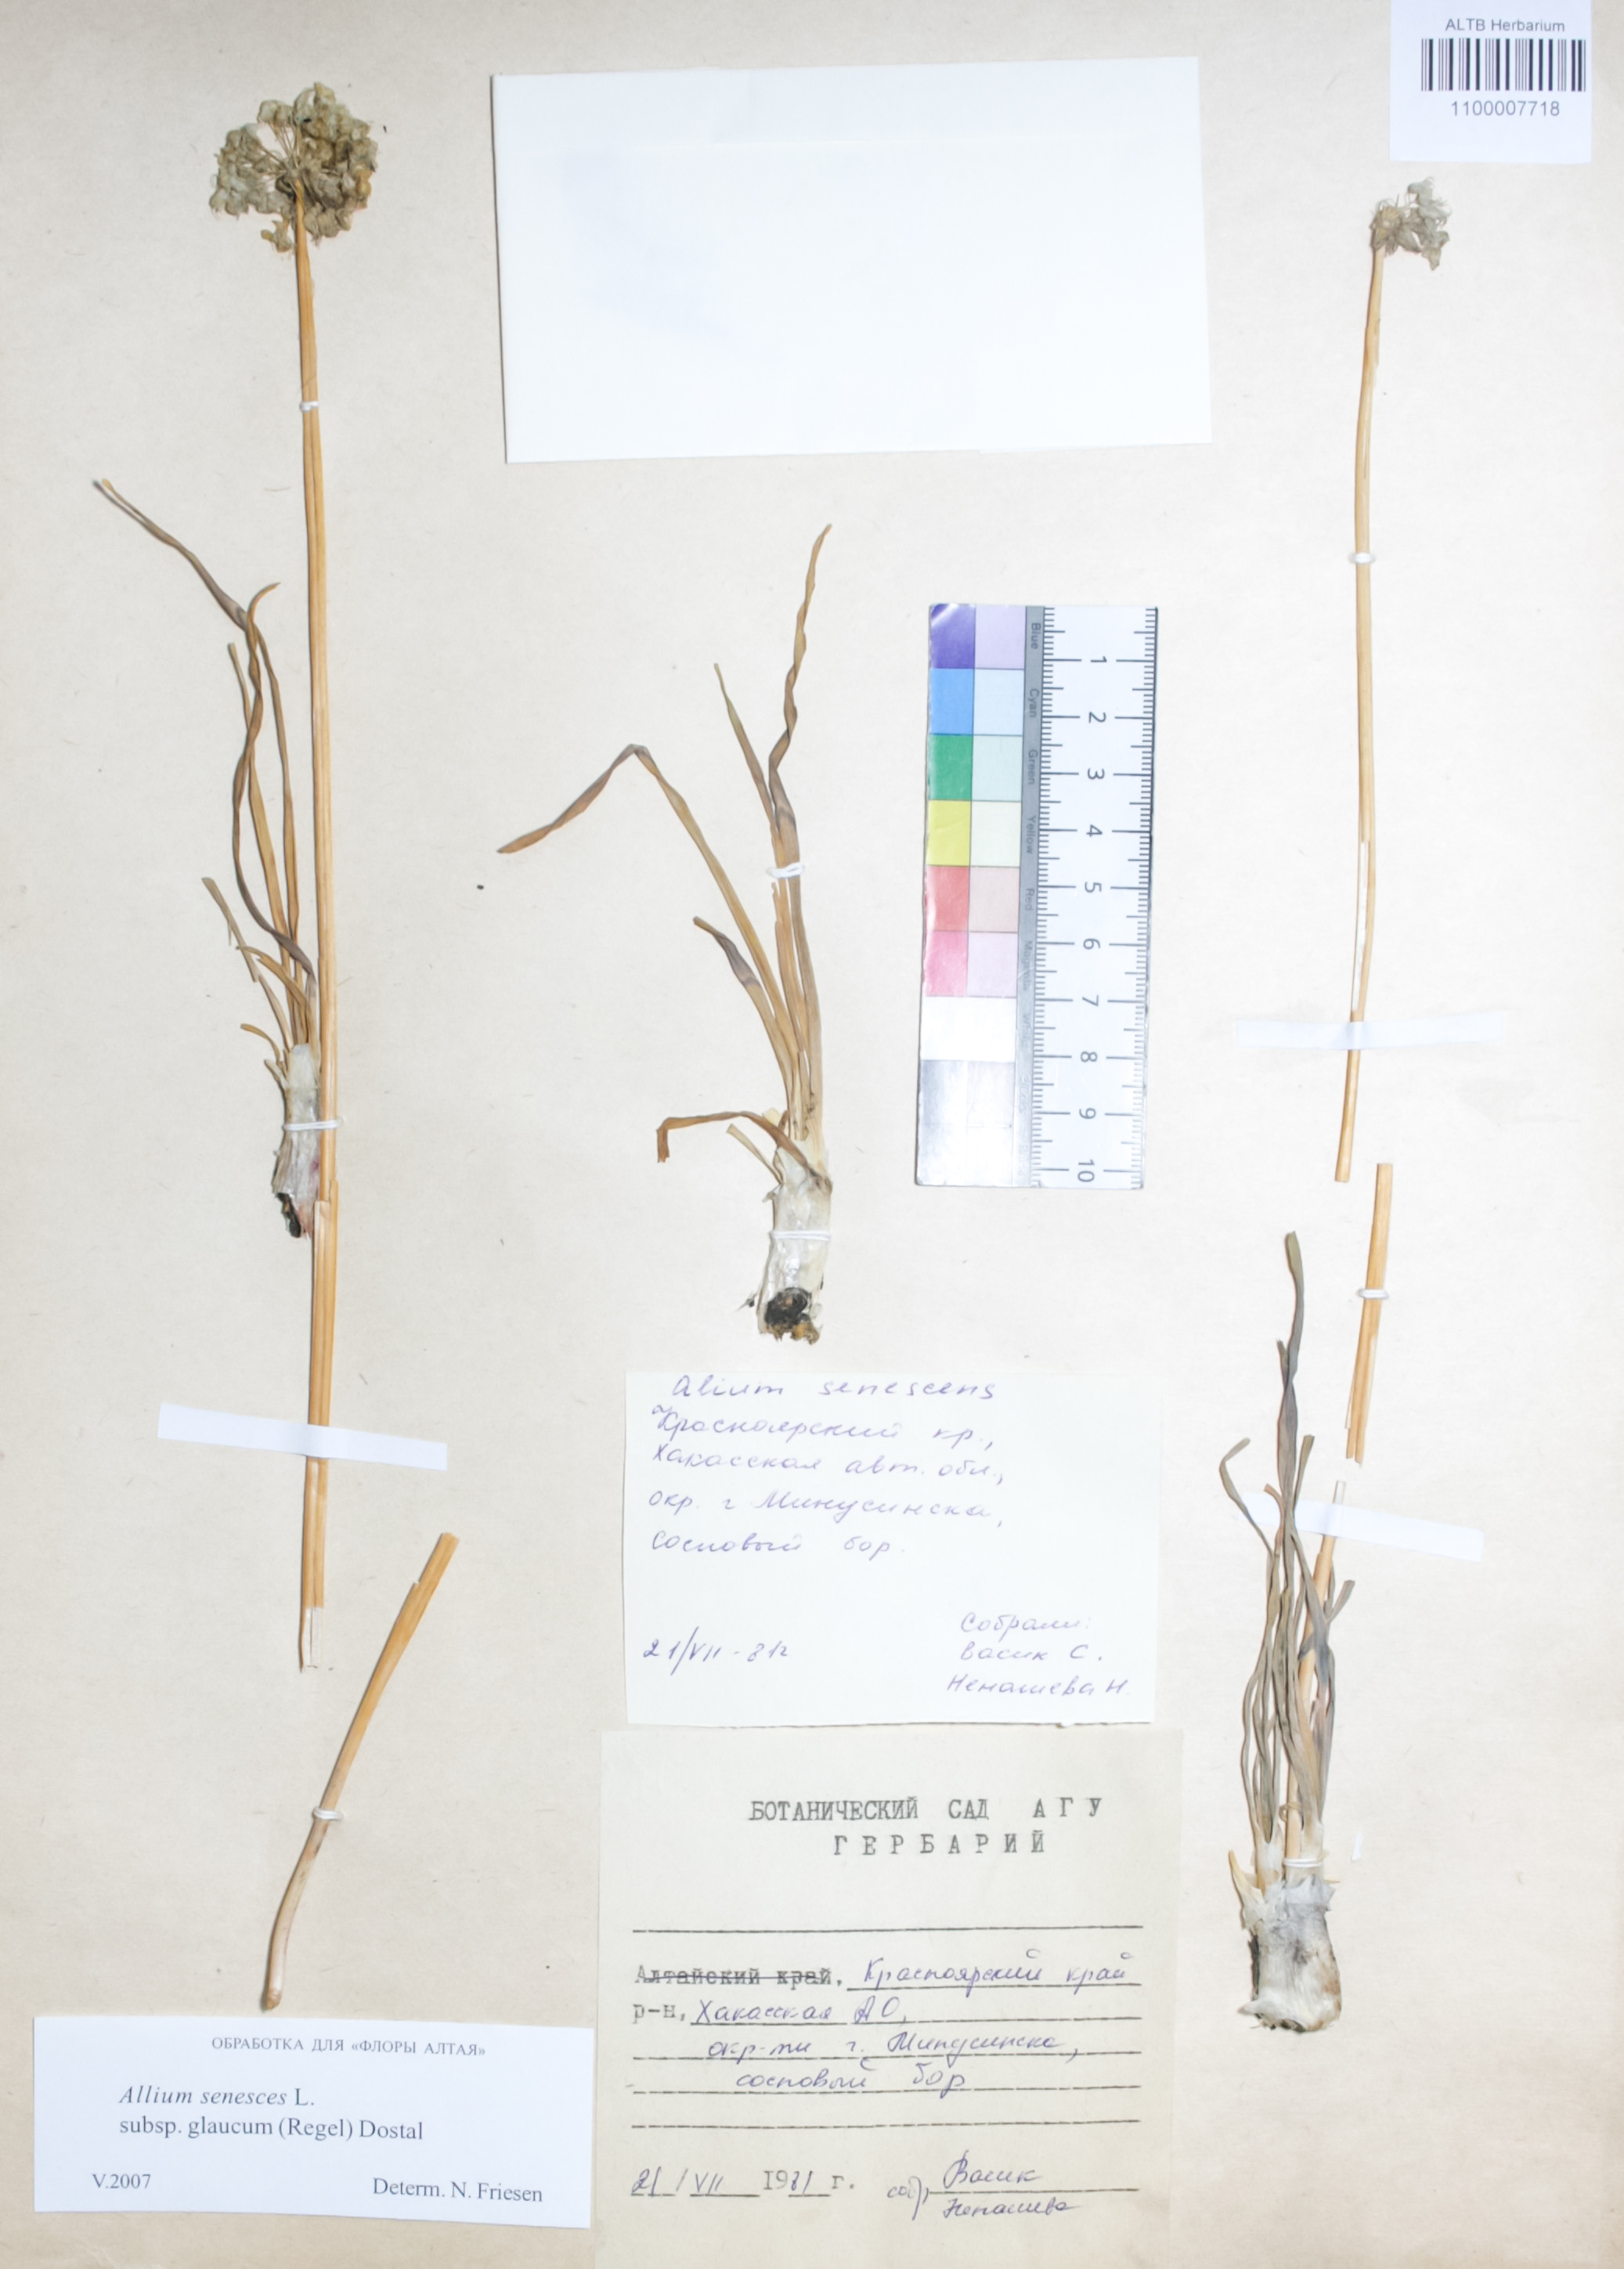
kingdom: Plantae
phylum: Tracheophyta
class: Liliopsida
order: Asparagales
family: Amaryllidaceae
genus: Allium
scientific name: Allium senescens
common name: German garlic
